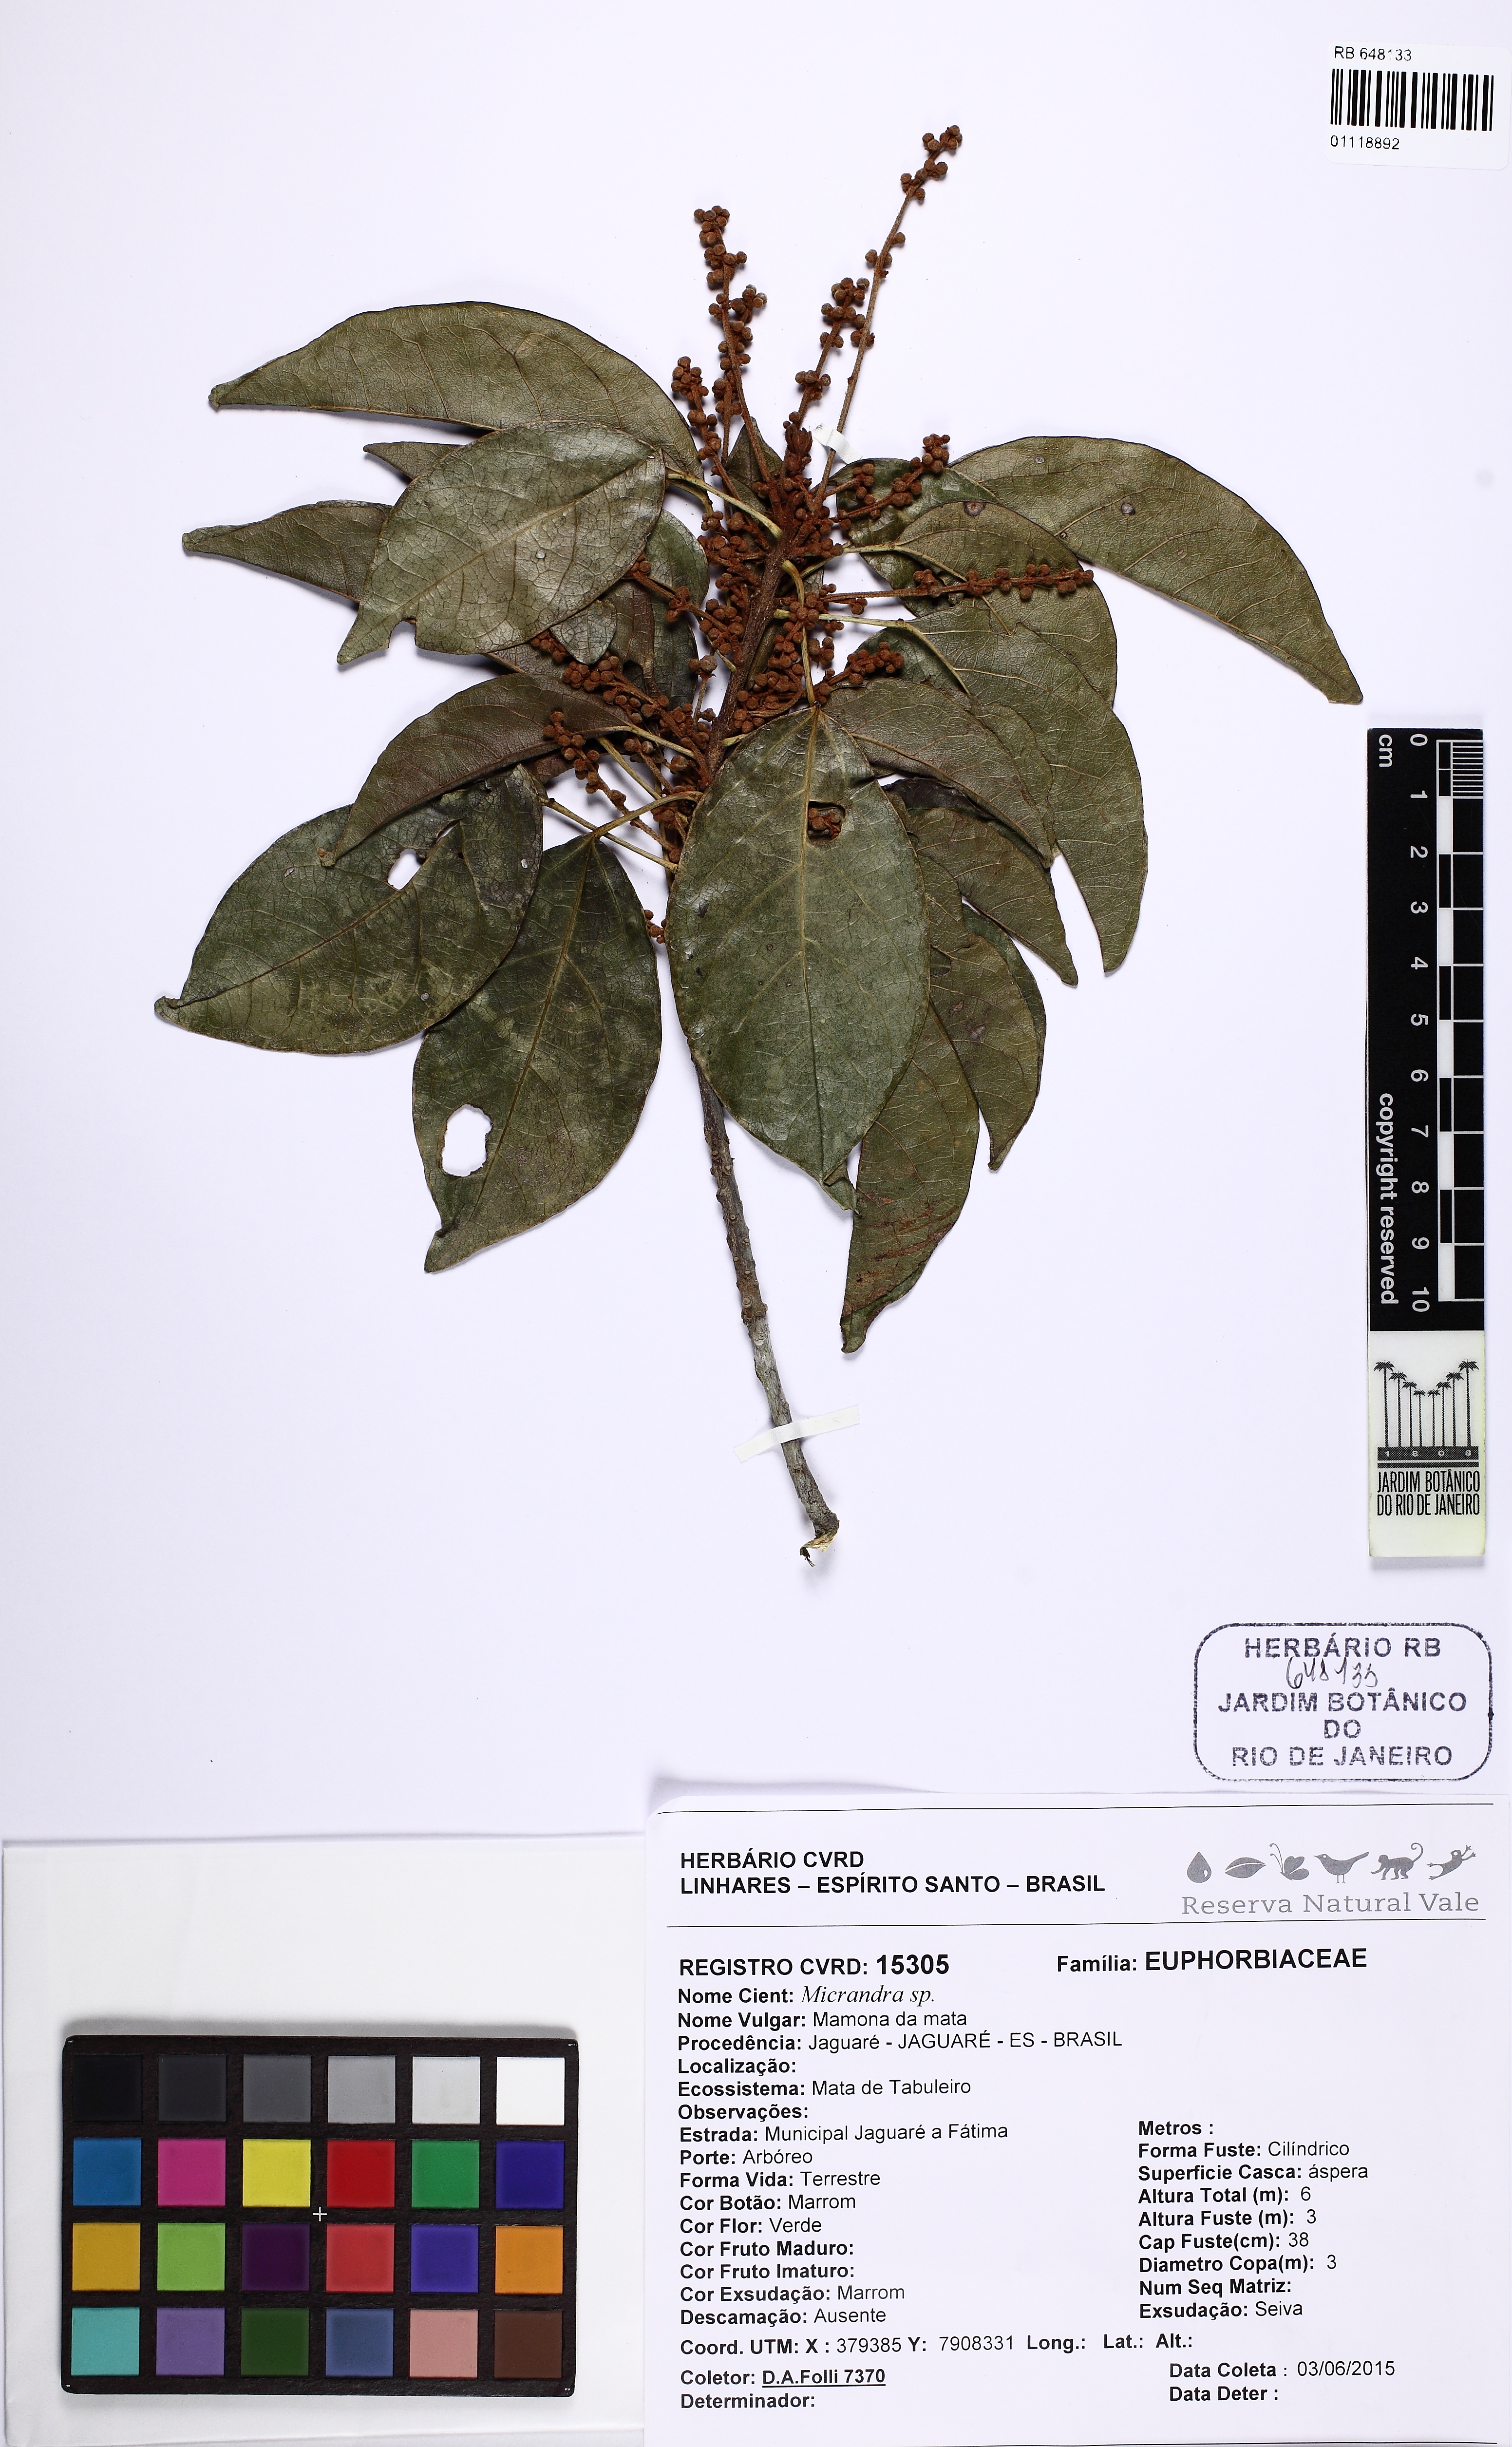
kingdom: Plantae
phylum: Tracheophyta
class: Magnoliopsida
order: Malpighiales
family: Euphorbiaceae
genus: Micrandra
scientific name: Micrandra
